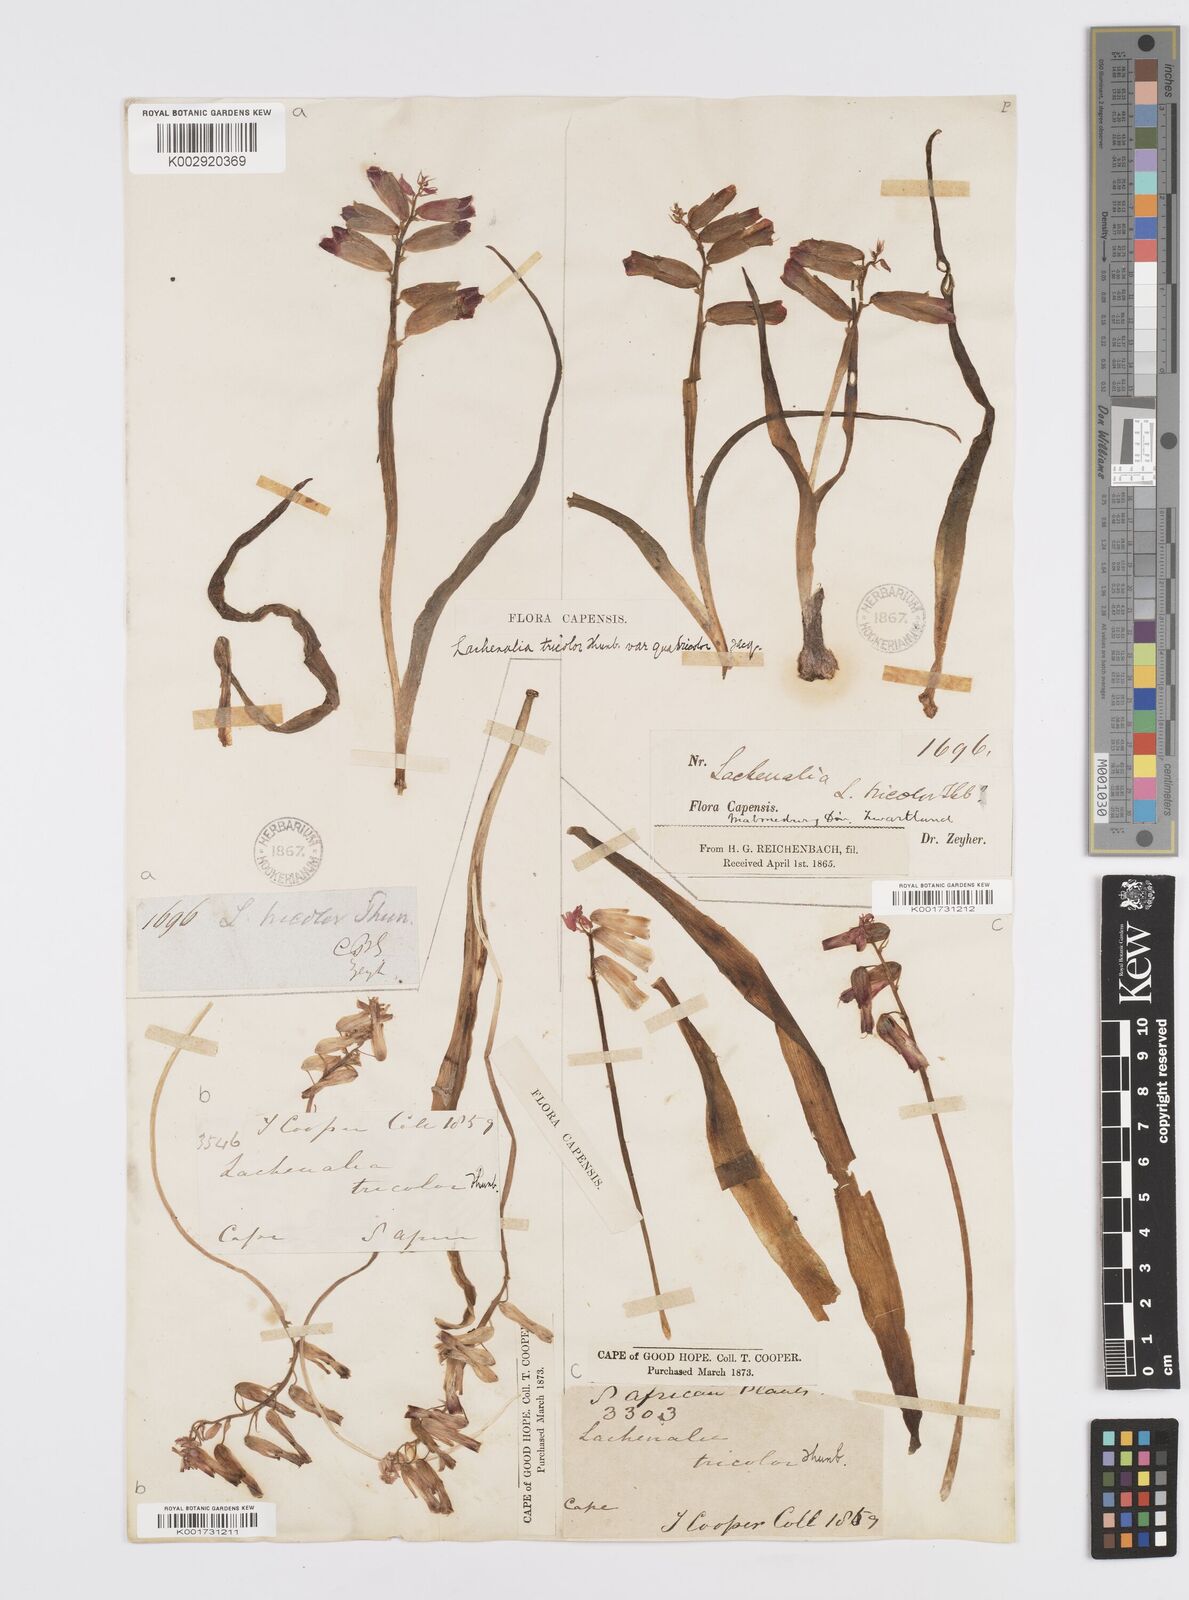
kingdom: Plantae
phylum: Tracheophyta
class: Liliopsida
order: Asparagales
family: Asparagaceae
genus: Lachenalia
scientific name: Lachenalia aloides
